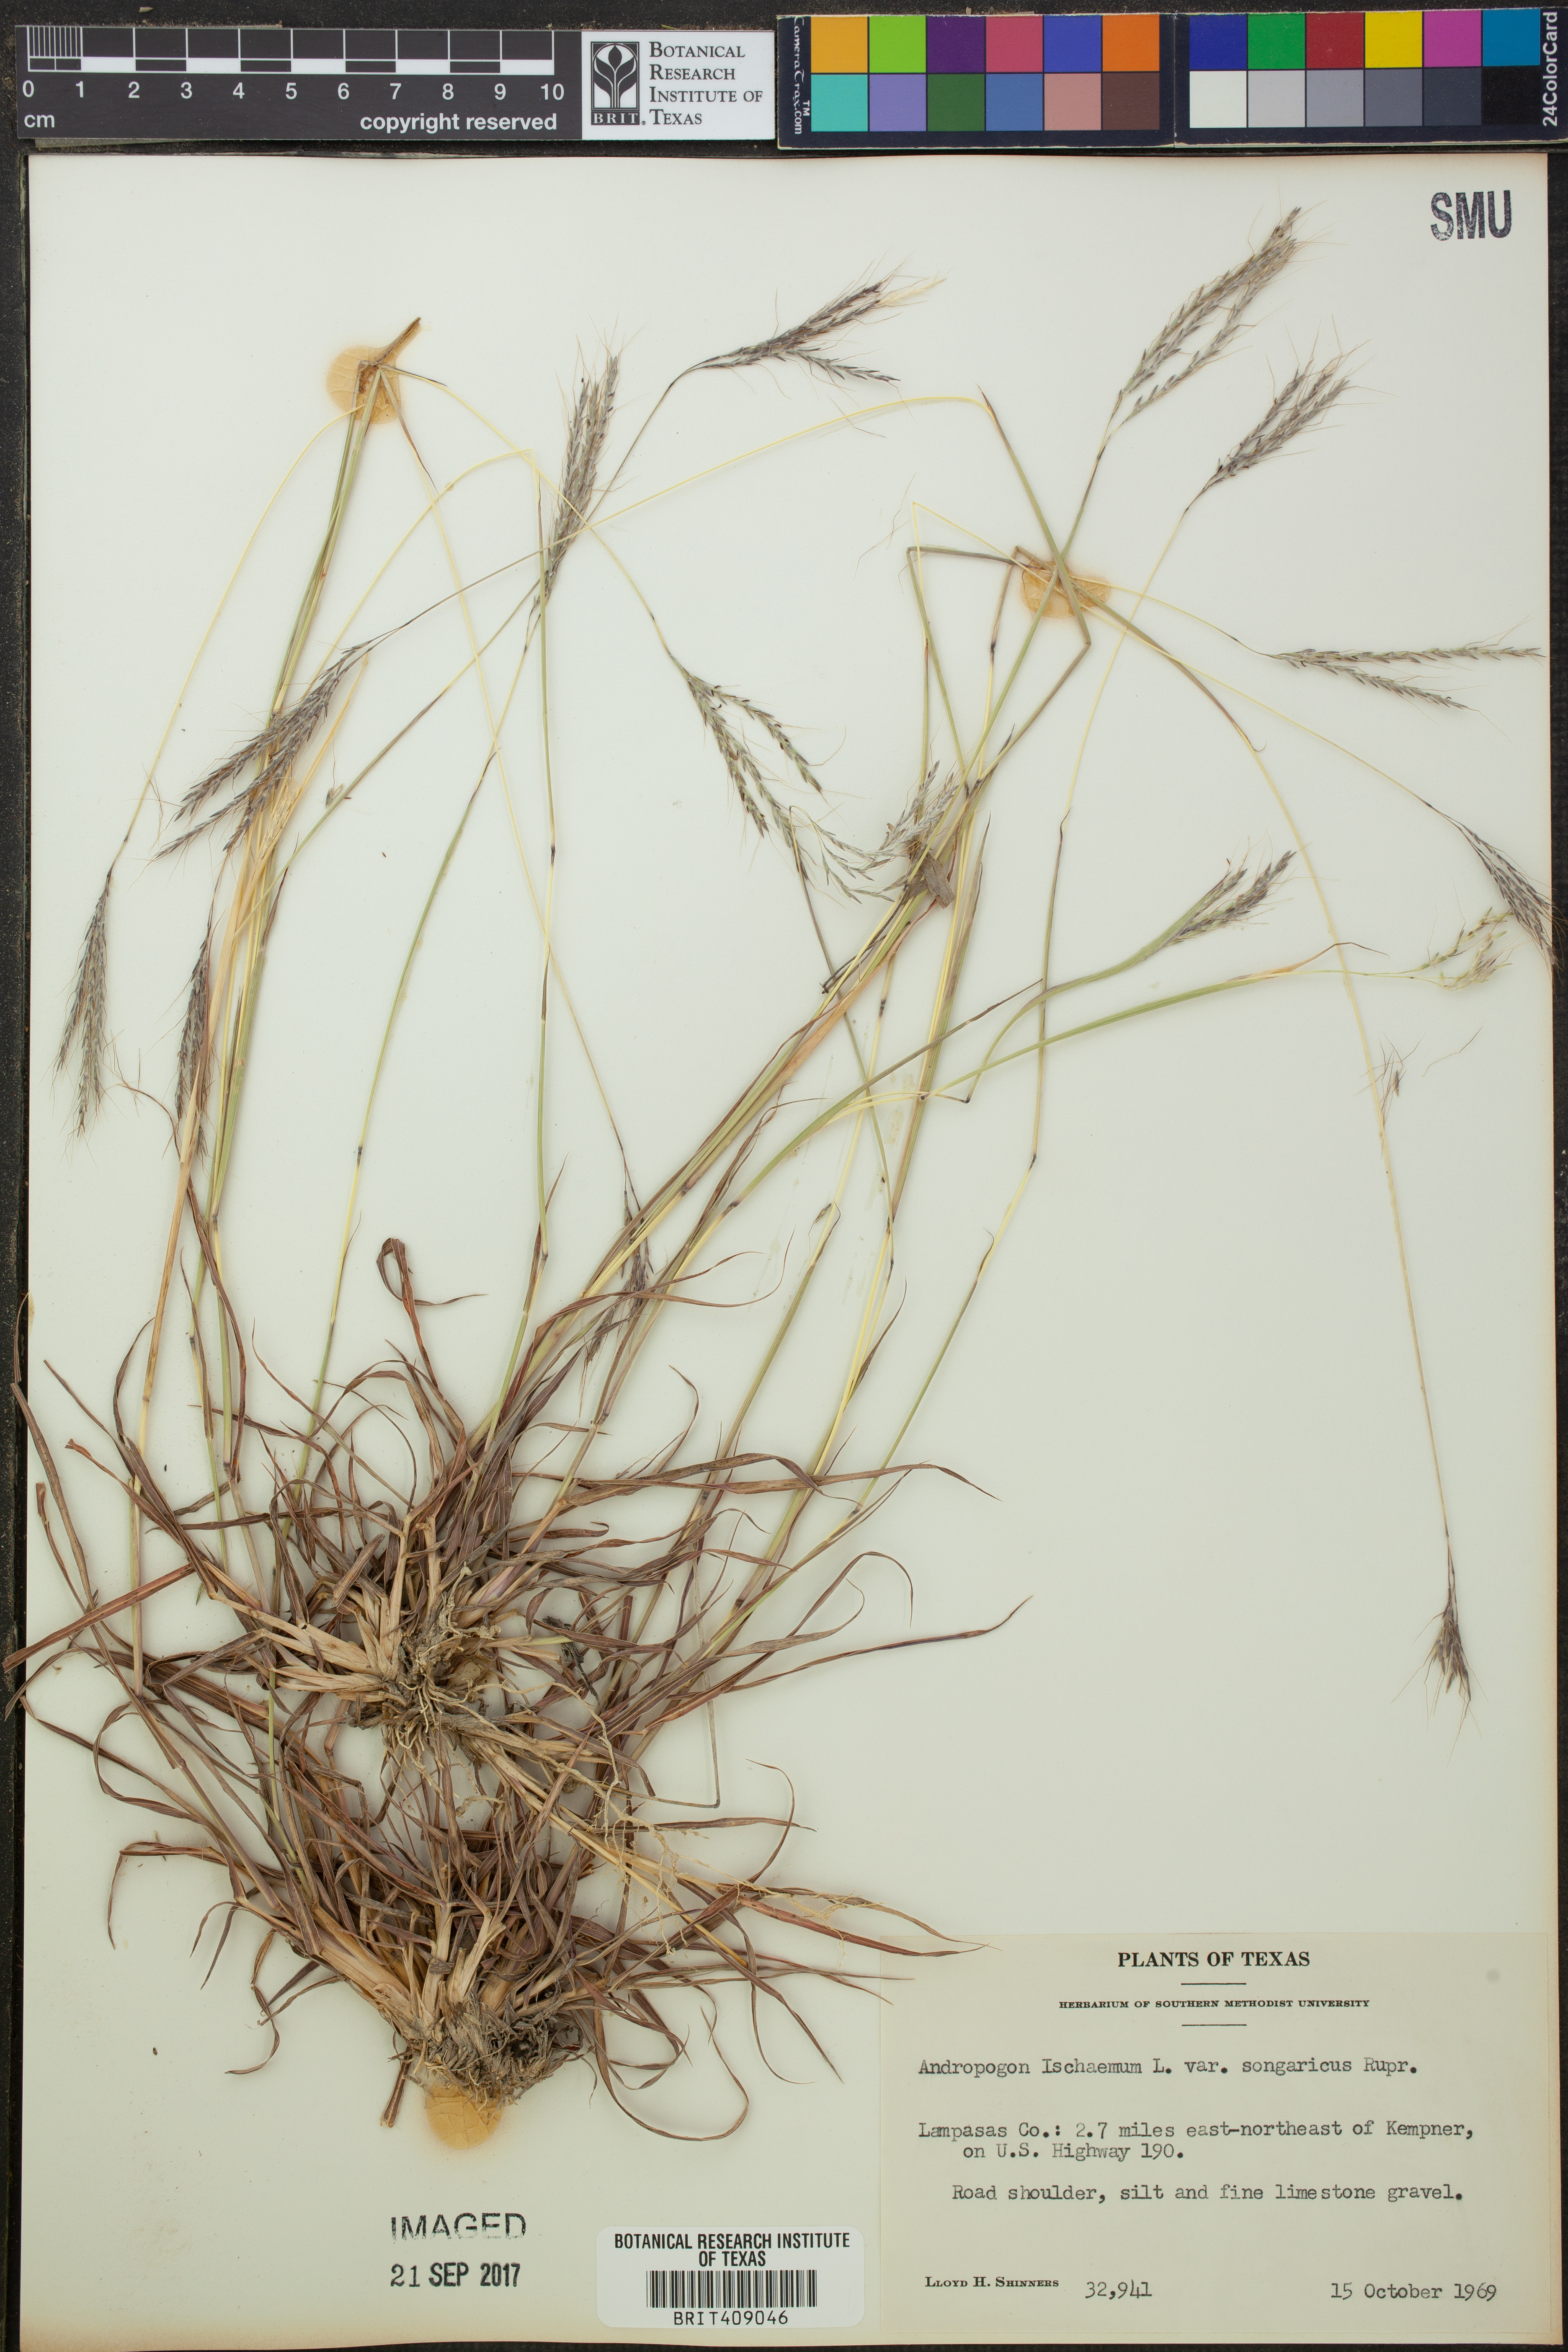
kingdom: Plantae
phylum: Tracheophyta
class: Liliopsida
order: Poales
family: Poaceae
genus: Bothriochloa
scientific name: Bothriochloa ischaemum
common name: Yellow bluestem
